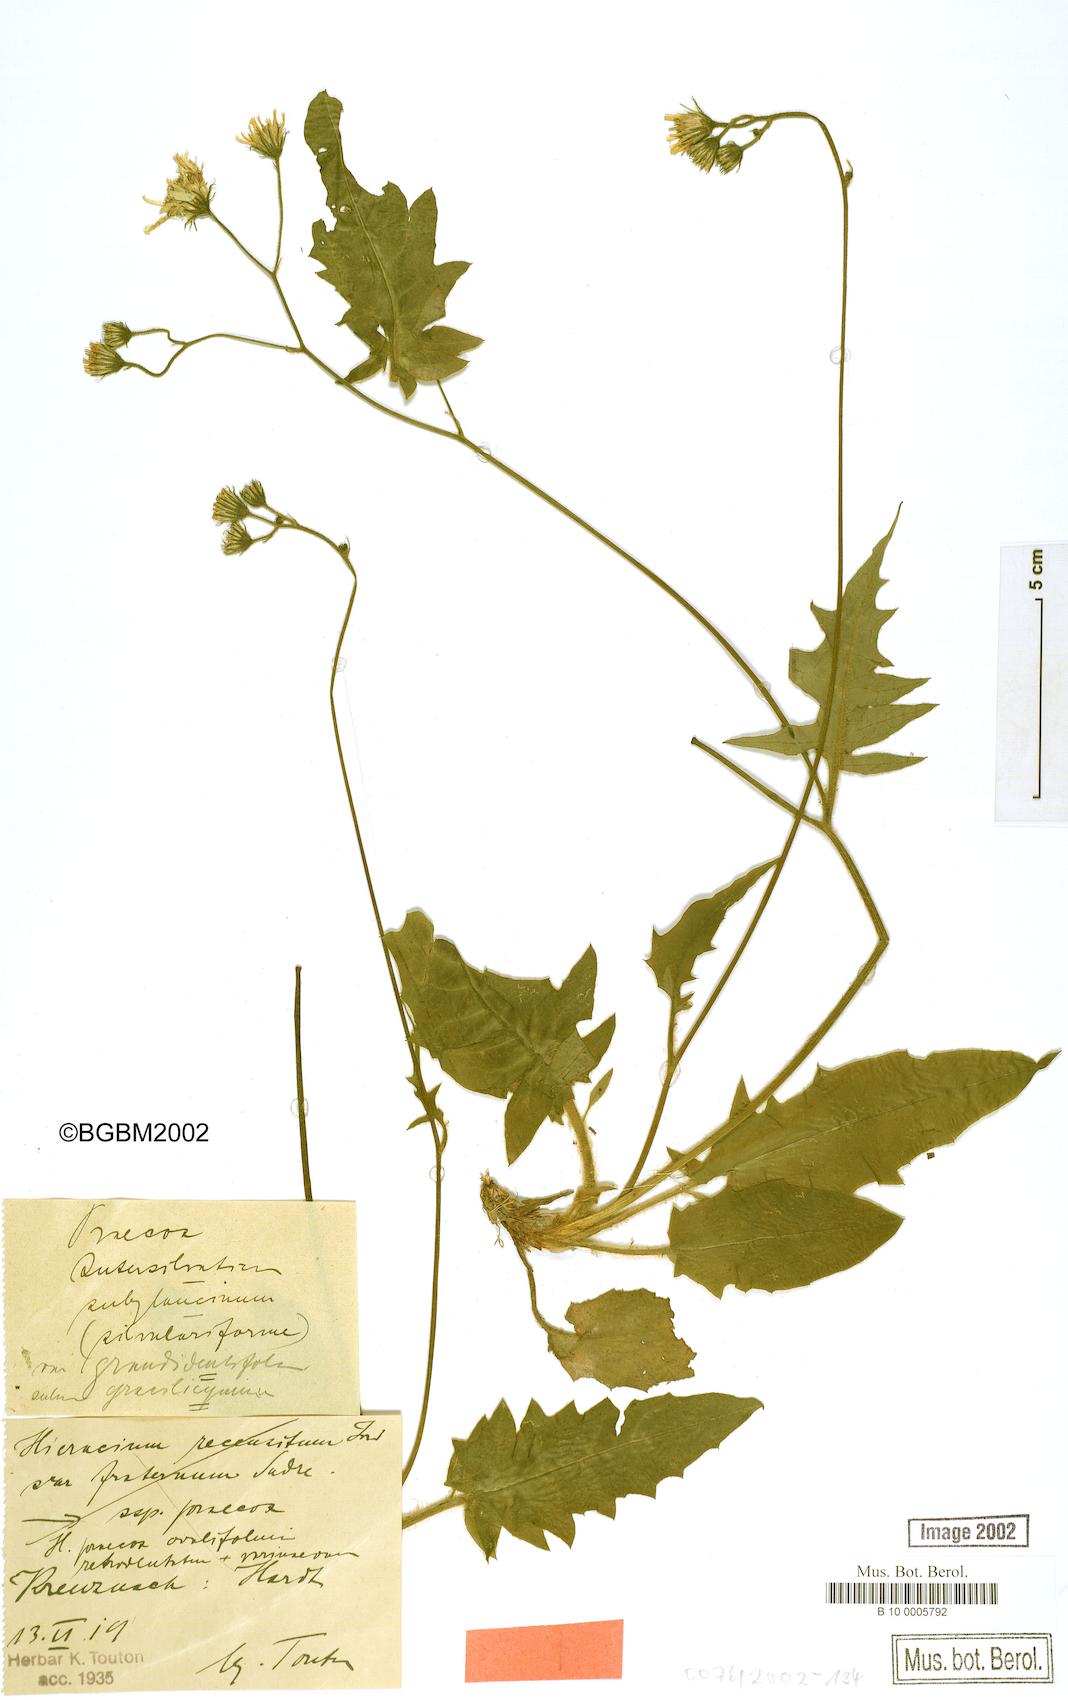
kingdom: Plantae
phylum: Tracheophyta
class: Magnoliopsida
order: Asterales
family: Asteraceae
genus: Hieracium
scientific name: Hieracium praecox
